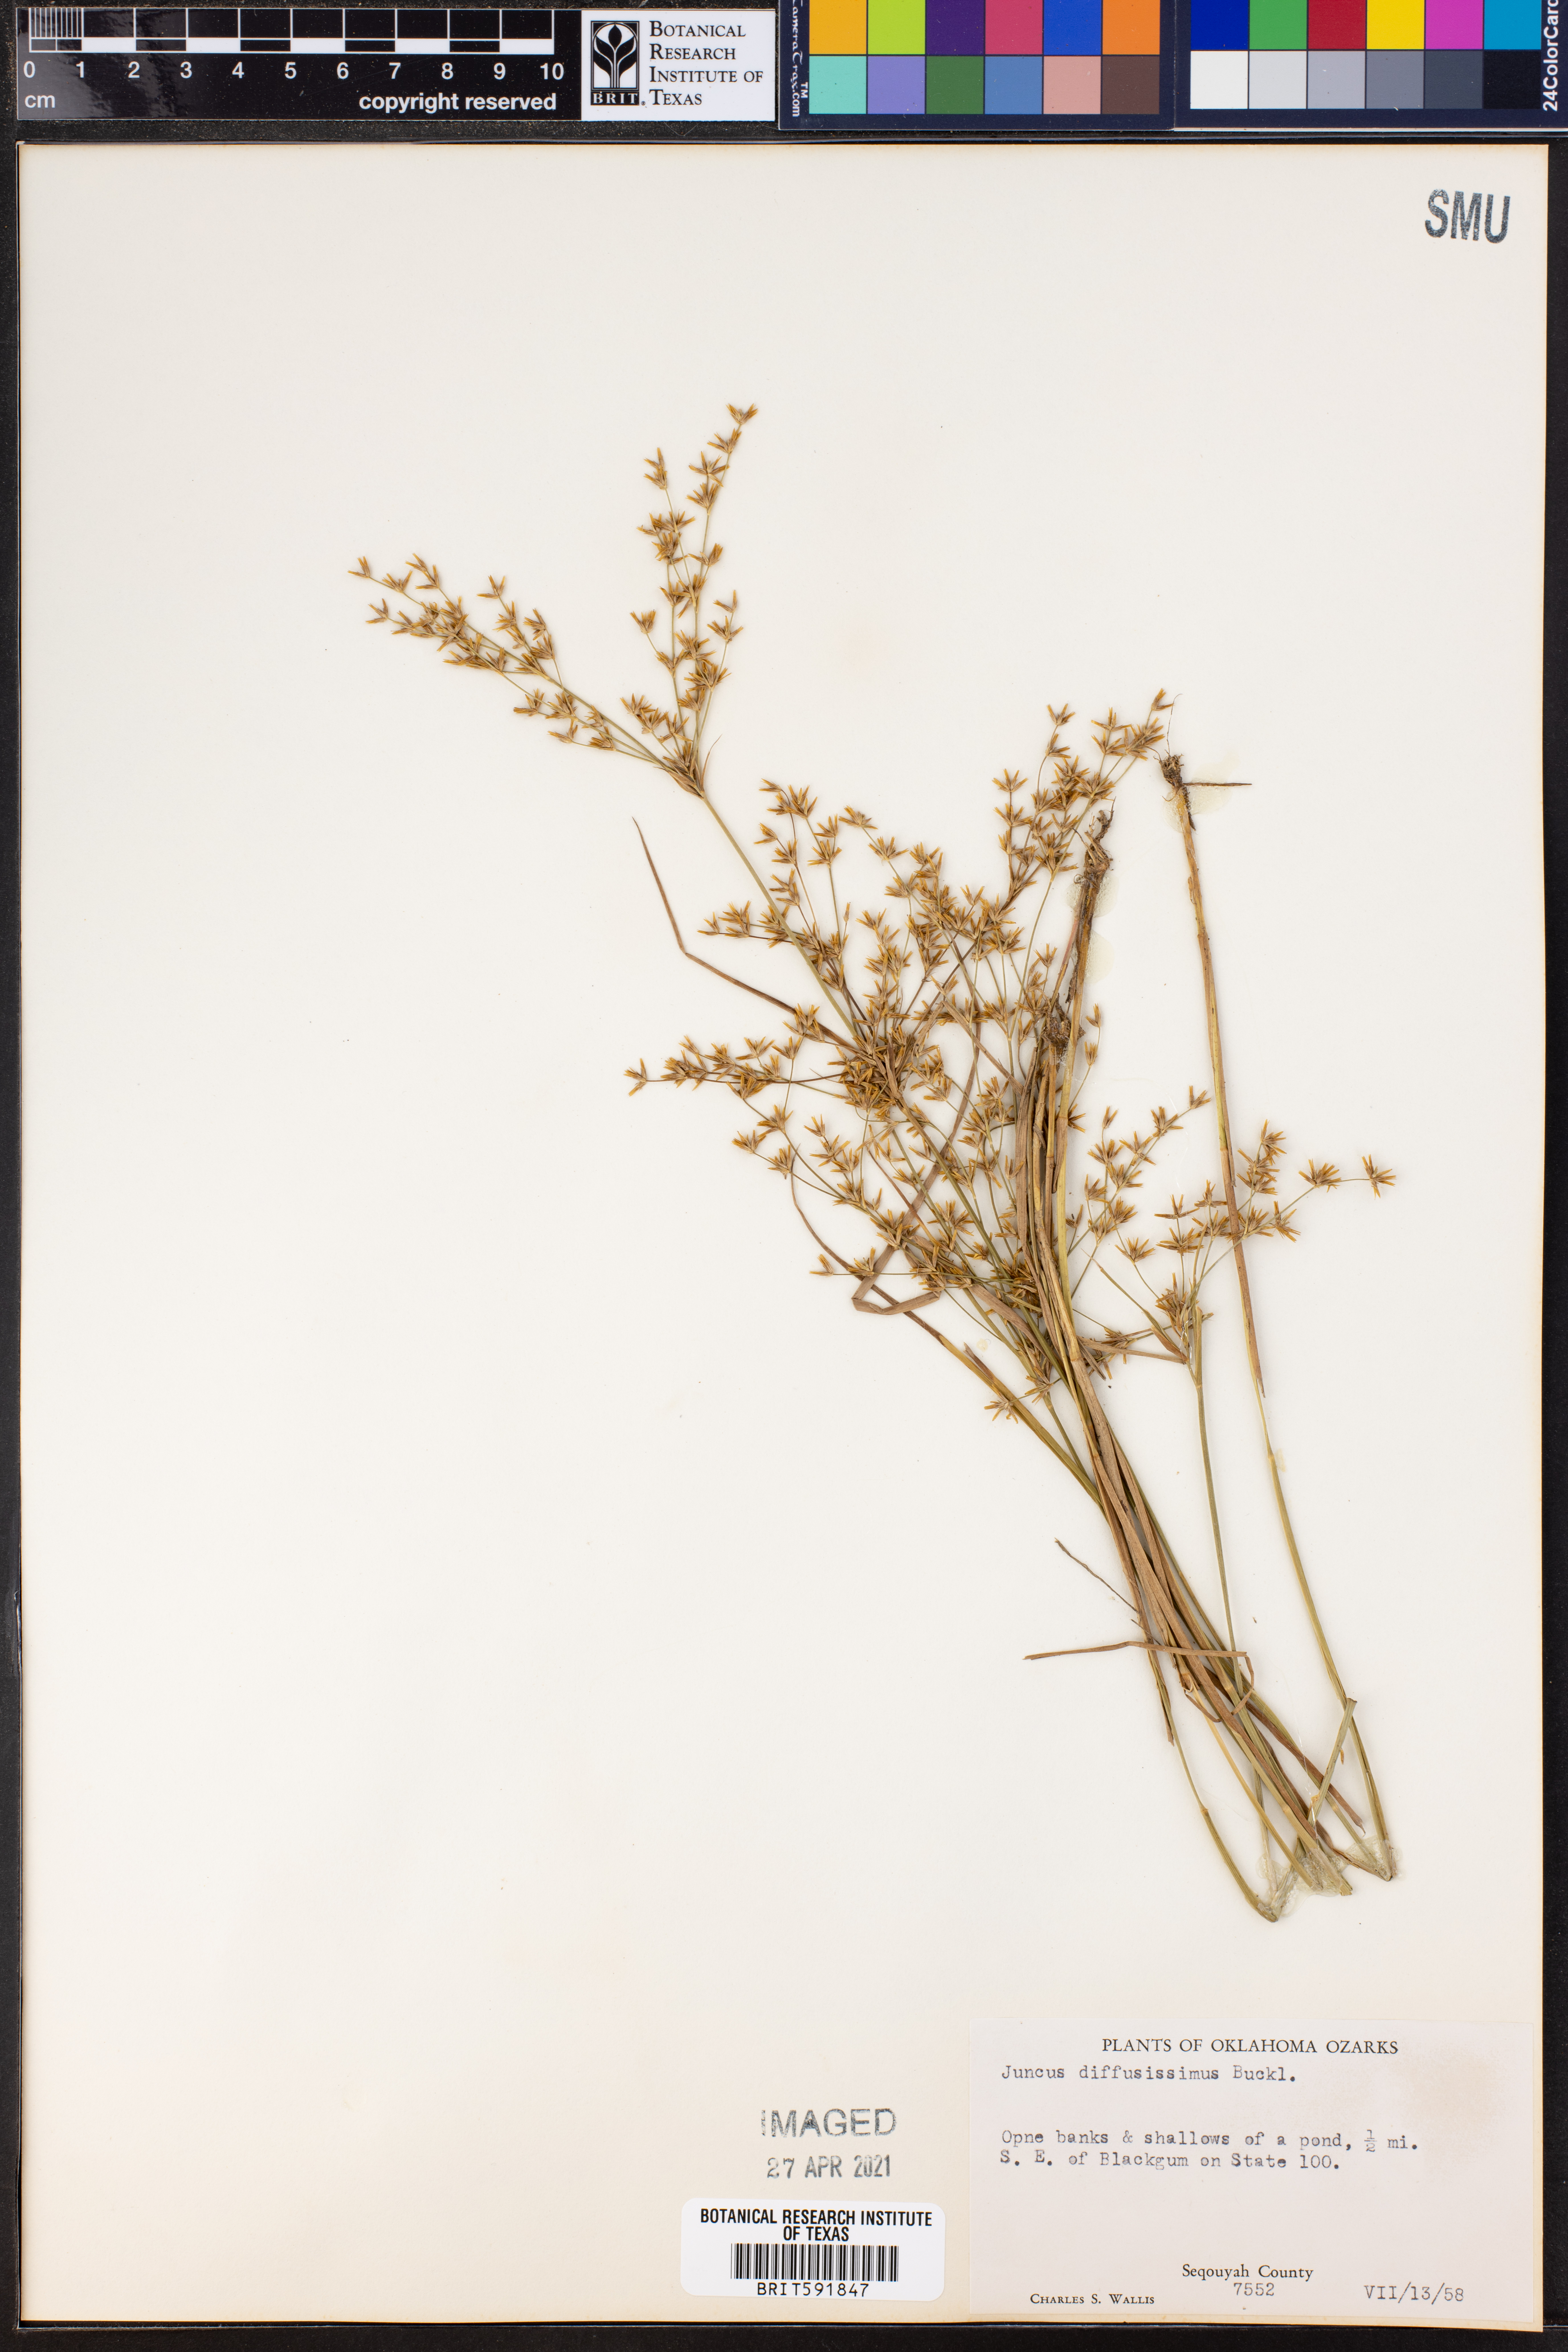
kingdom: Plantae
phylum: Tracheophyta
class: Liliopsida
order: Poales
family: Juncaceae
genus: Juncus
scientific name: Juncus diffusissimus
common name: Slimpod rush
